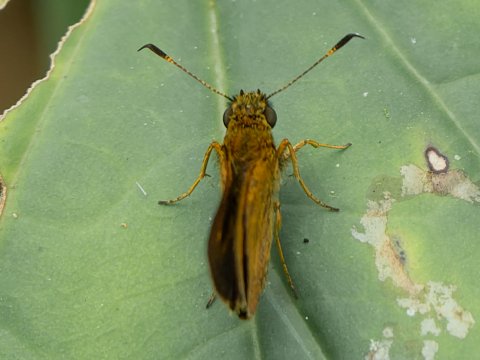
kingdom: Animalia
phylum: Arthropoda
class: Insecta
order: Lepidoptera
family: Hesperiidae
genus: Anthoptus
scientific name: Anthoptus epictetus
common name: Trailside Skipper
